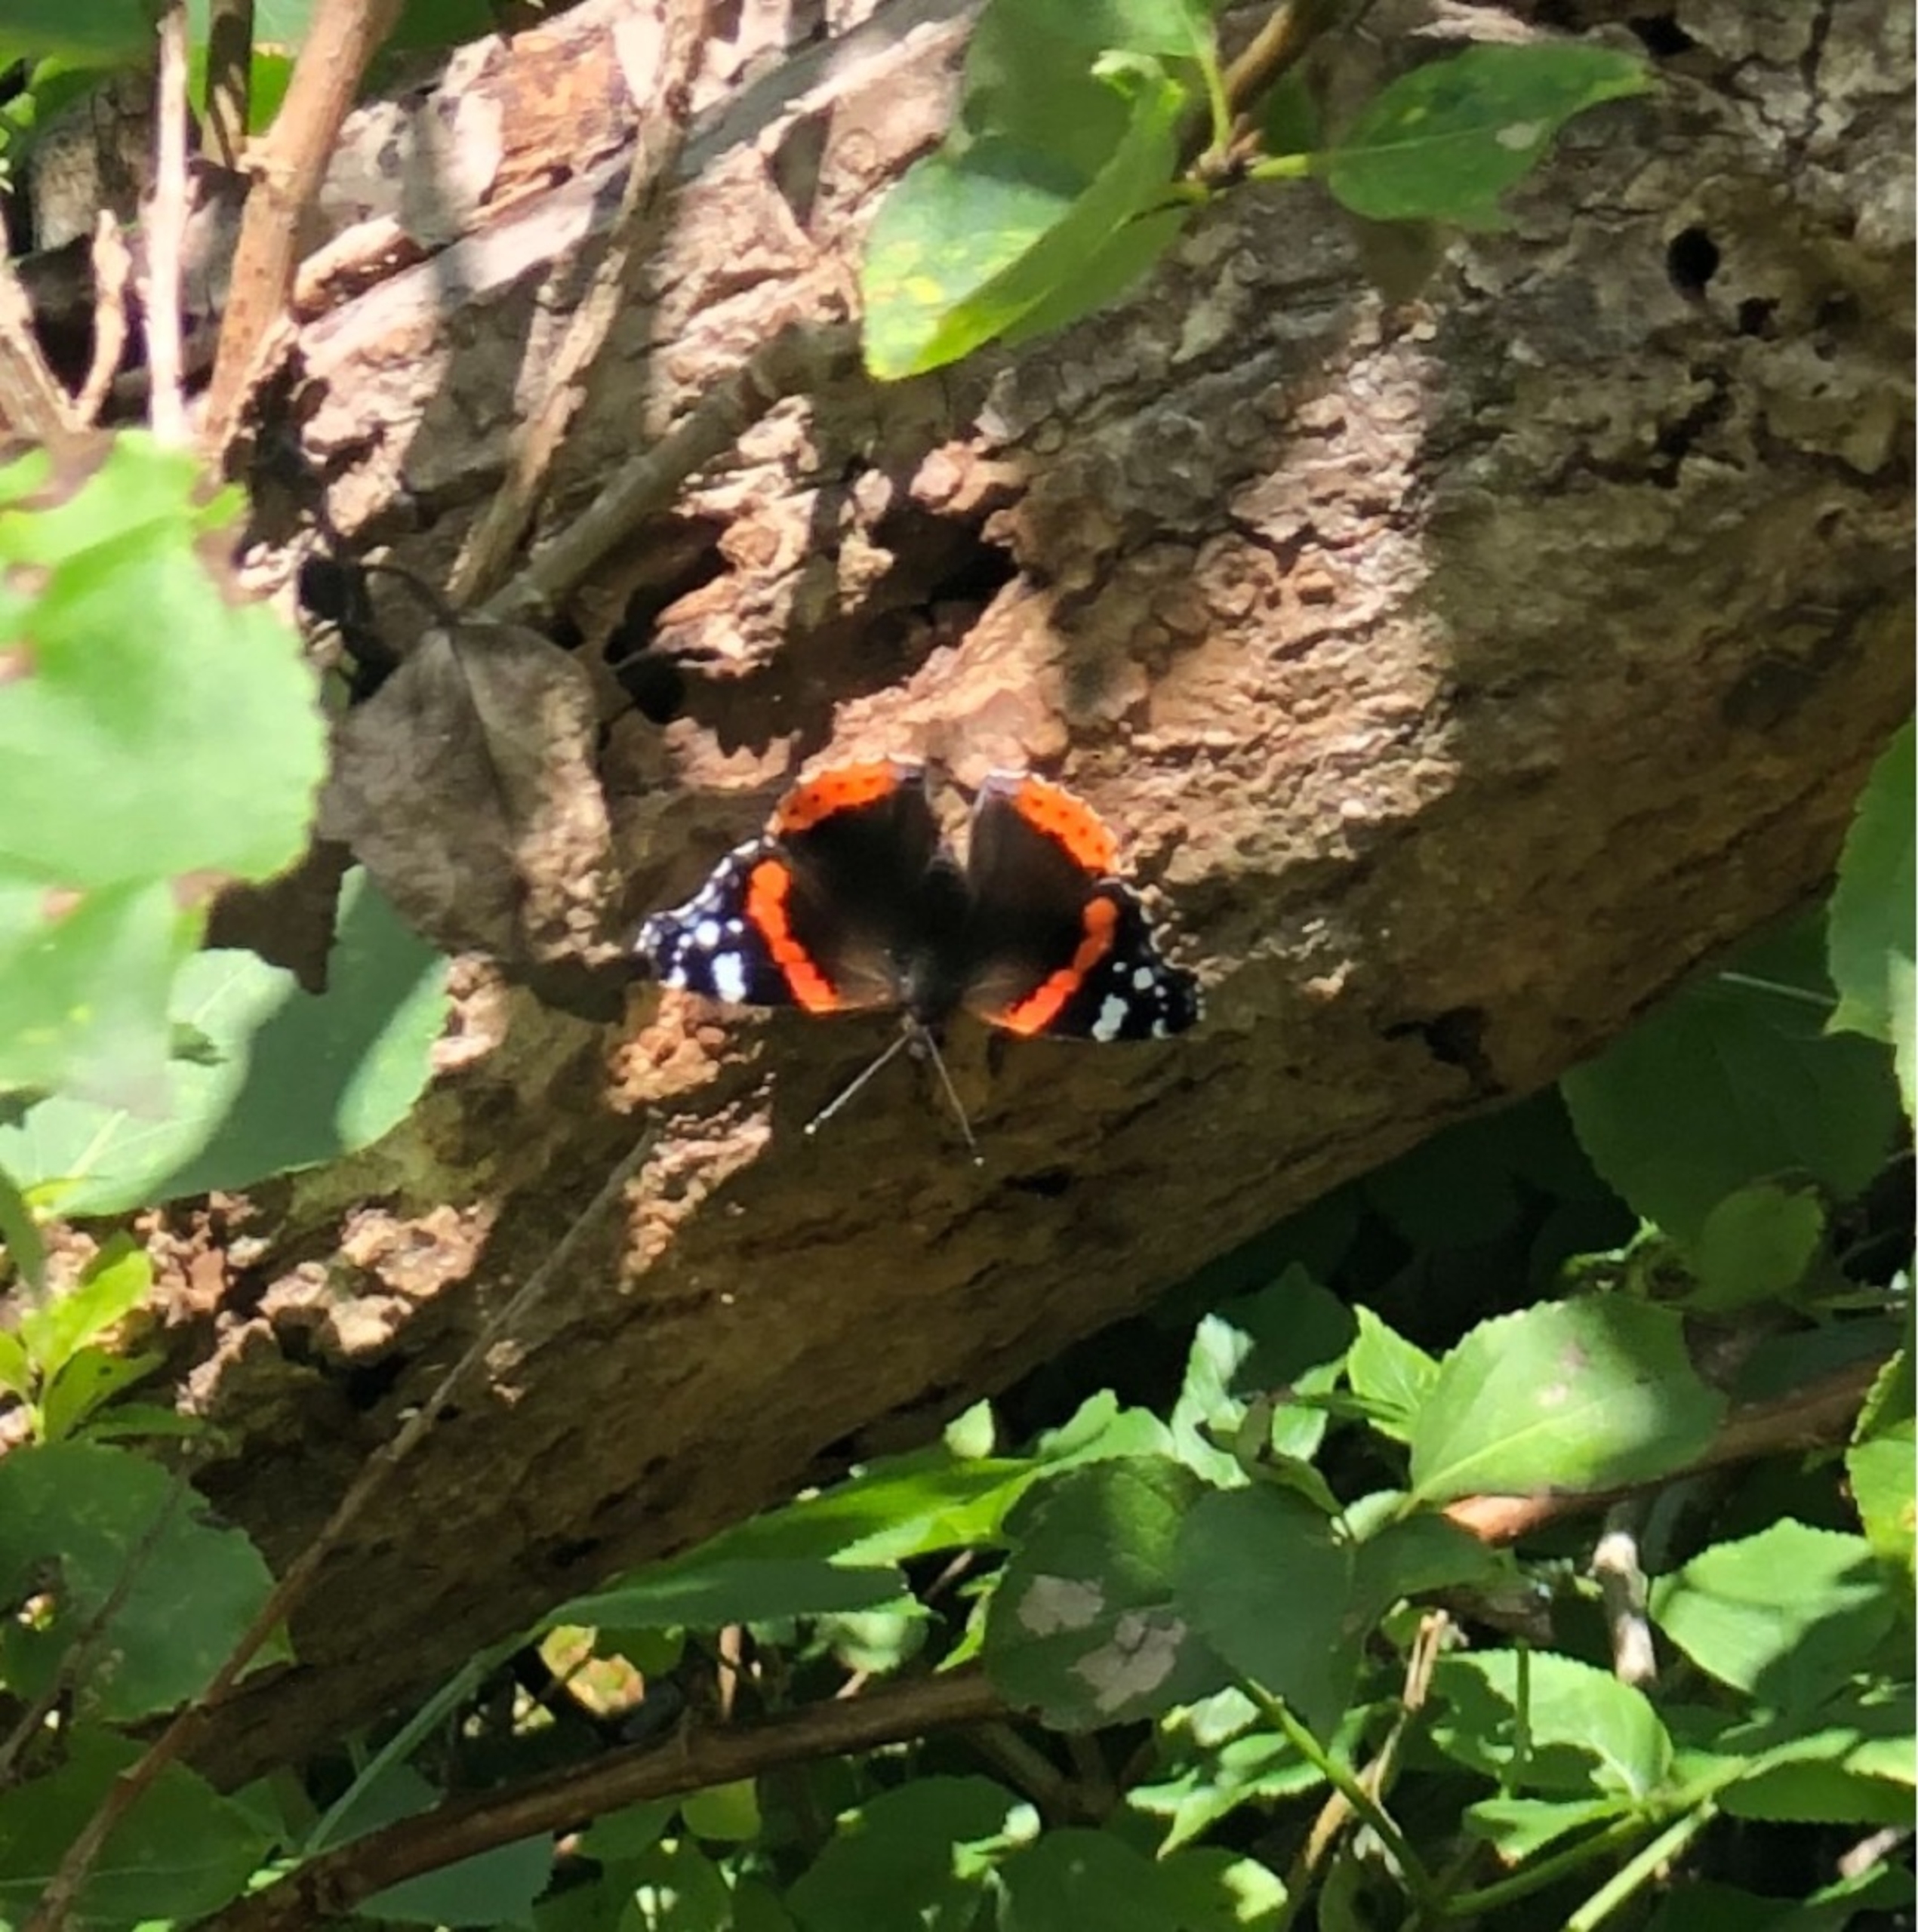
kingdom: Animalia
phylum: Arthropoda
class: Insecta
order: Lepidoptera
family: Nymphalidae
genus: Vanessa
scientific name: Vanessa atalanta
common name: Admiral
